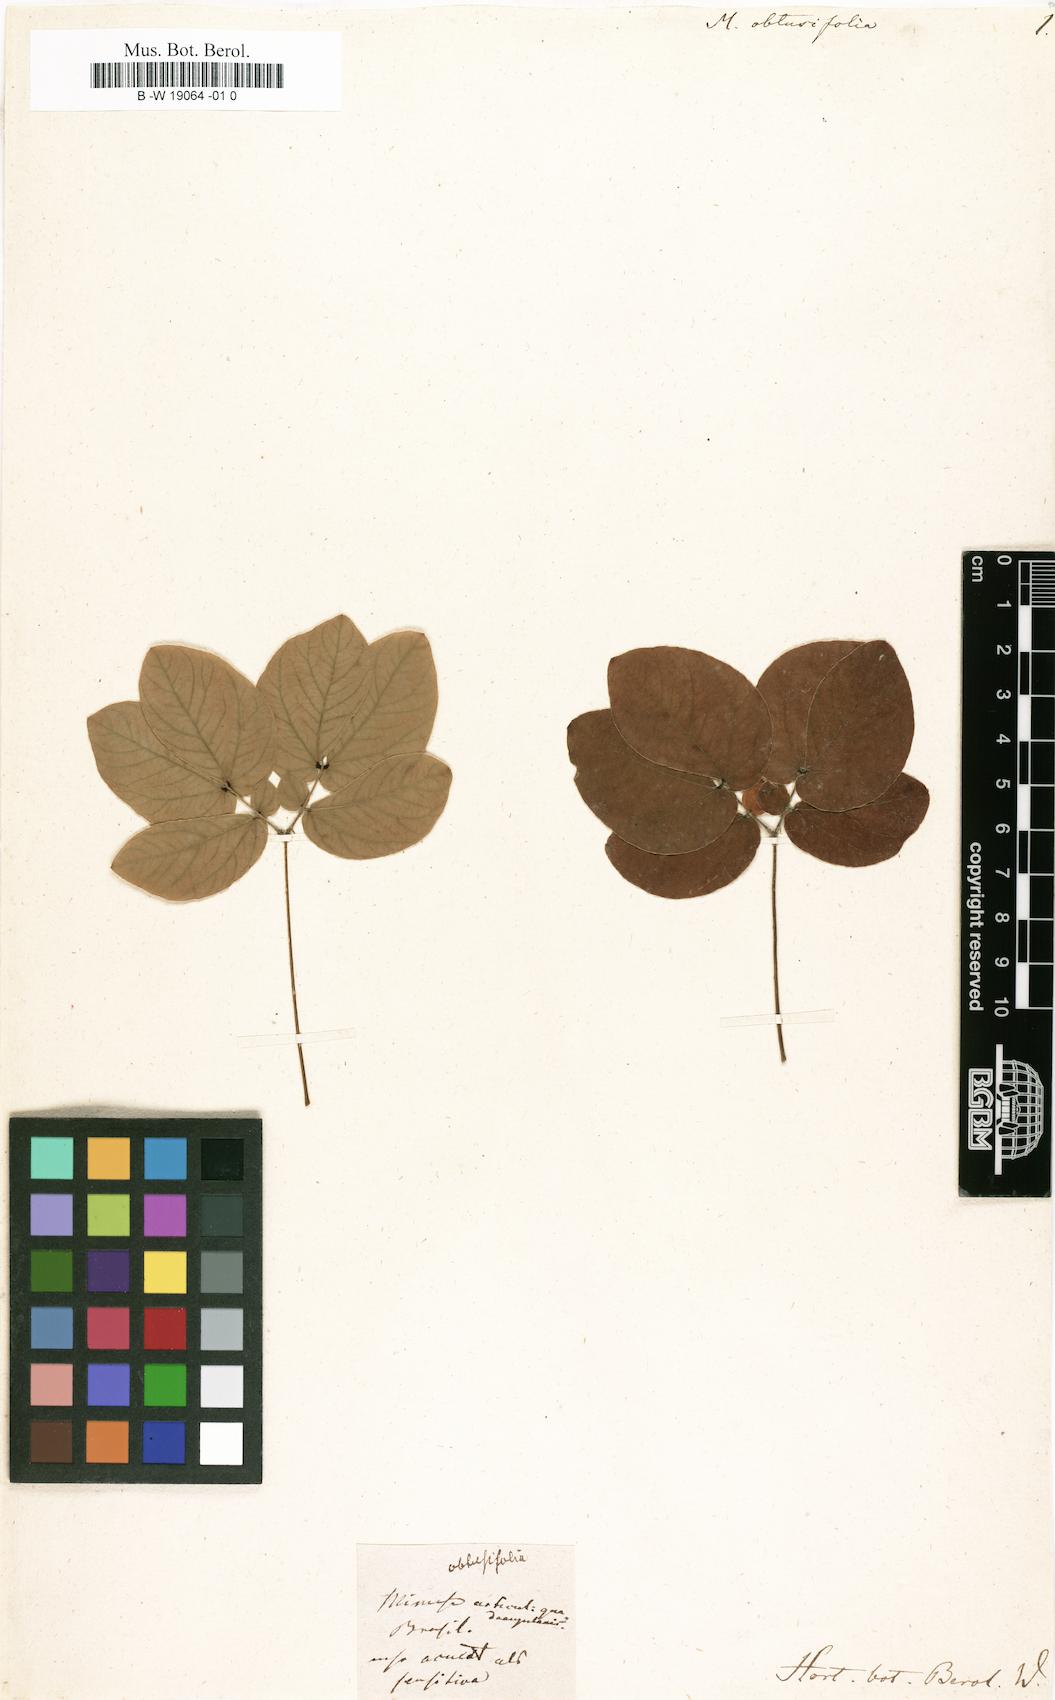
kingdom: Plantae
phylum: Tracheophyta
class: Magnoliopsida
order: Fabales
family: Fabaceae
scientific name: Fabaceae
